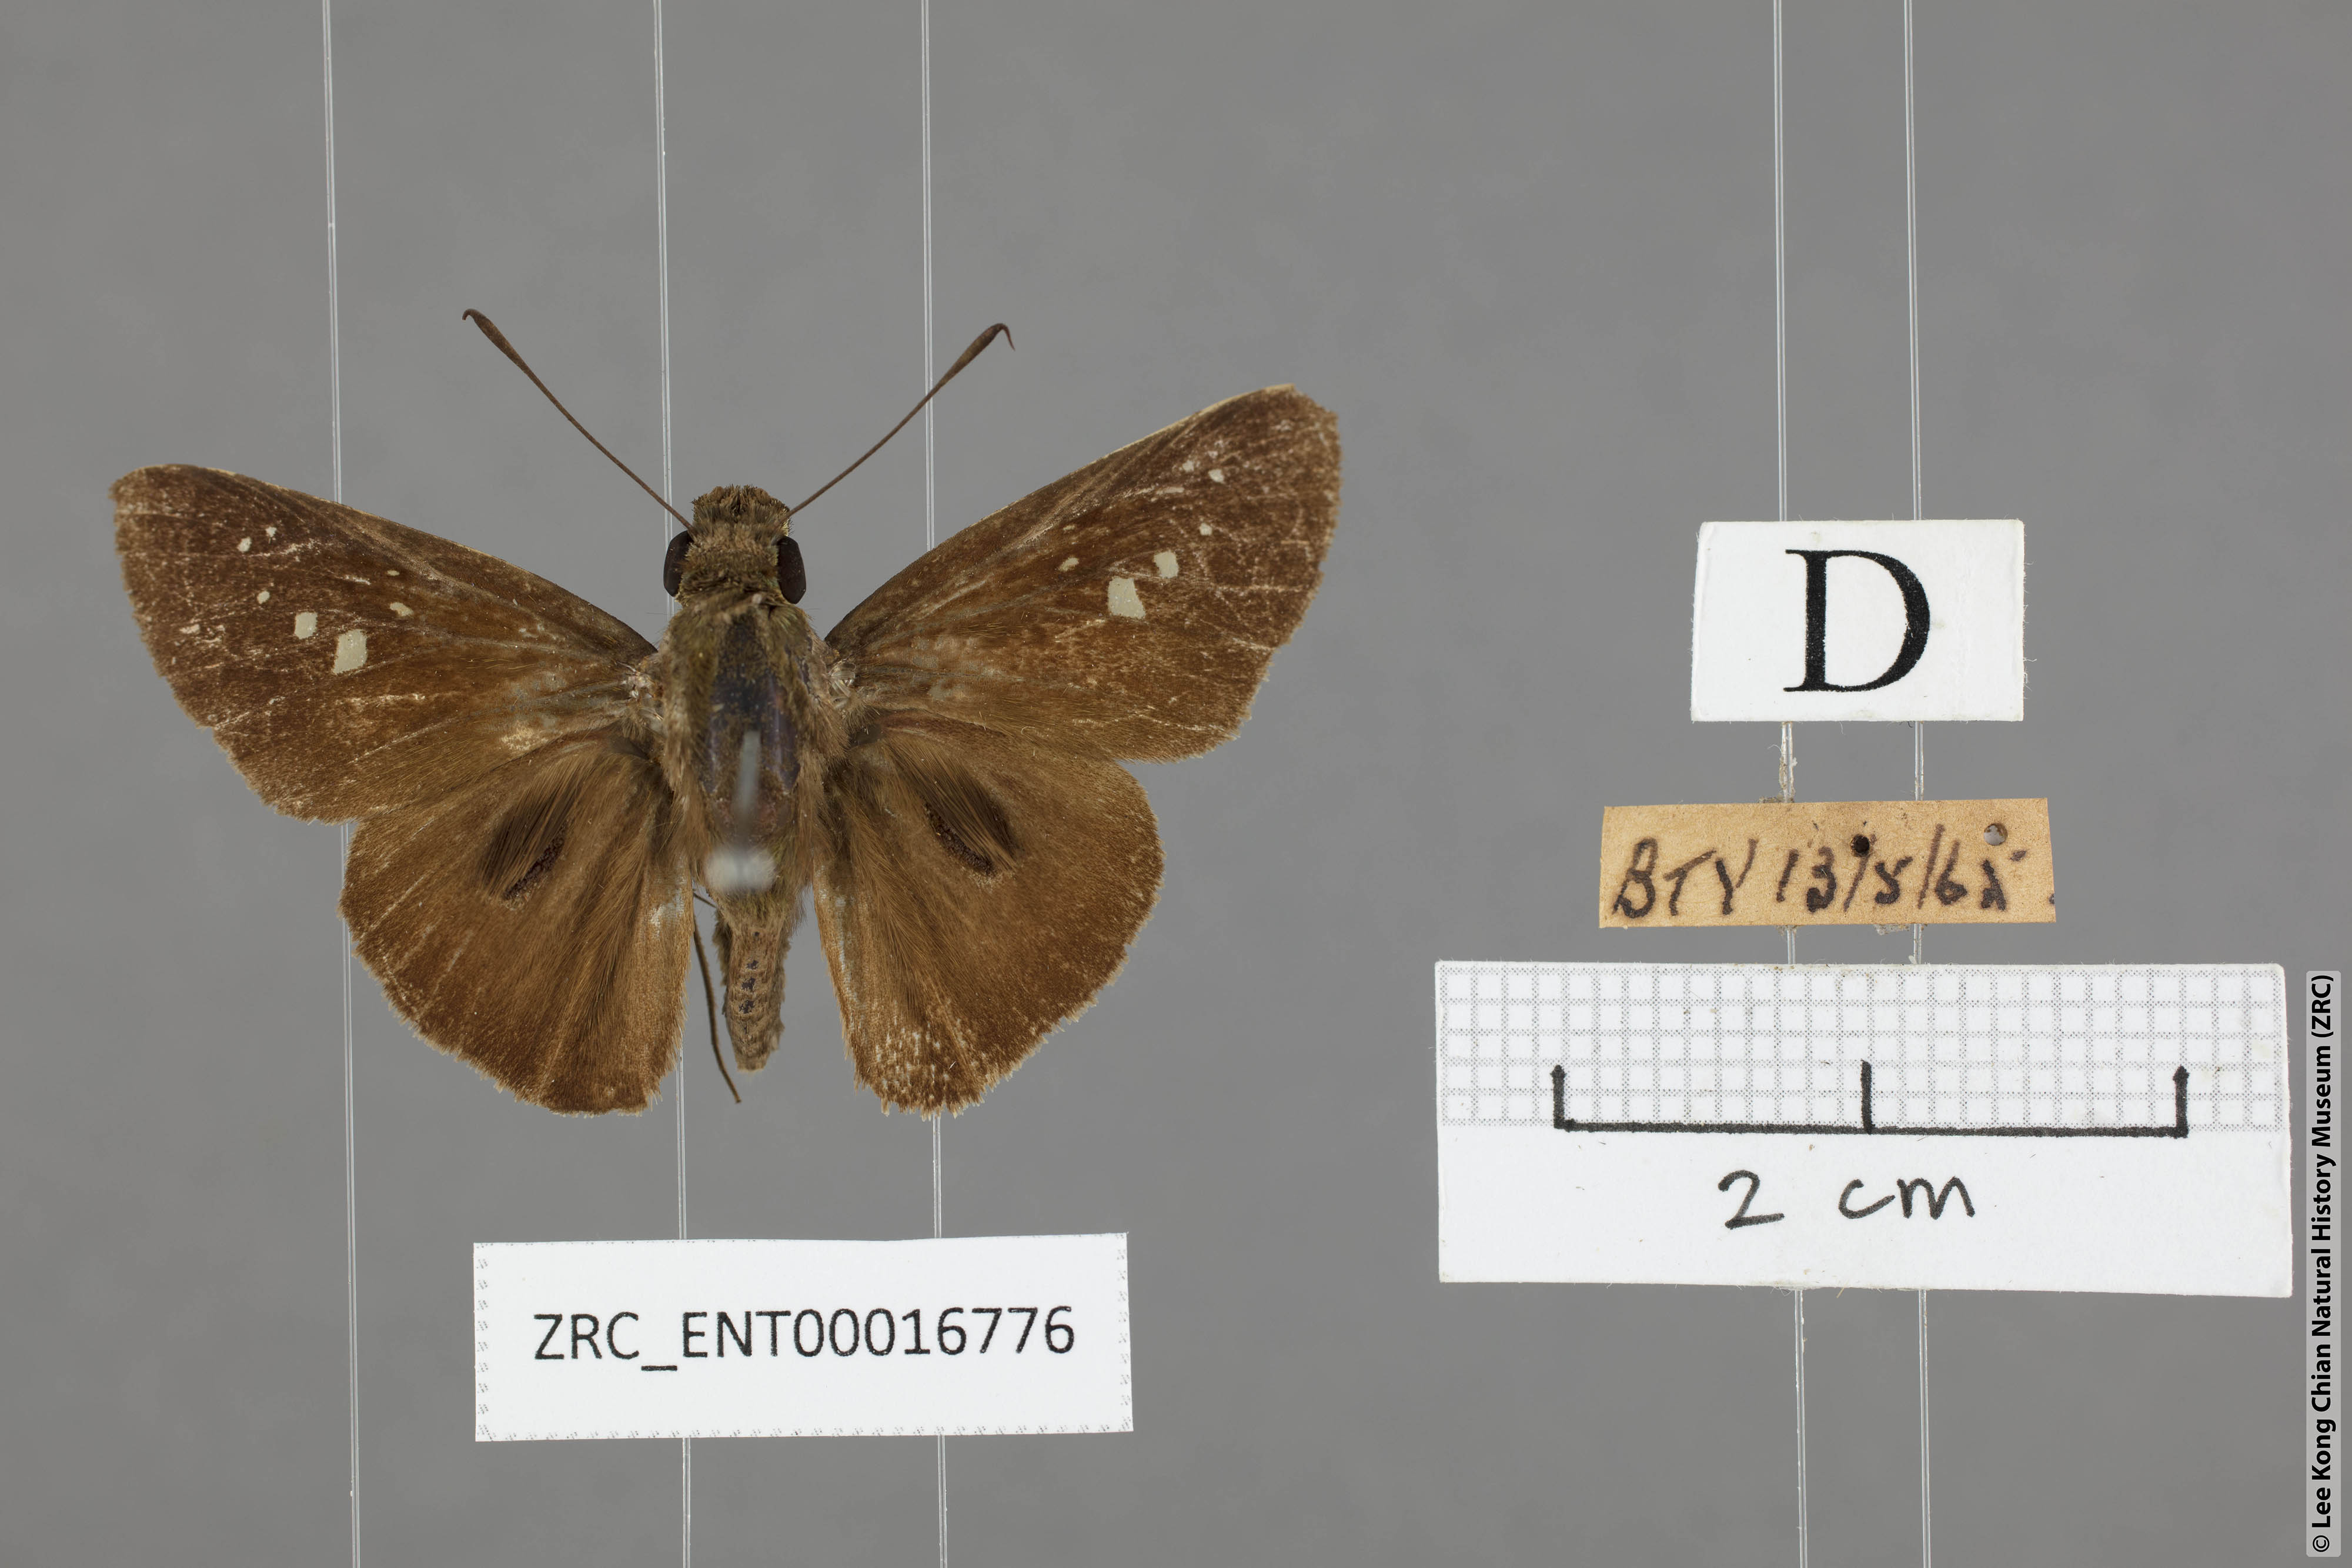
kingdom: Animalia
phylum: Arthropoda
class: Insecta
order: Lepidoptera
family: Hesperiidae
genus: Baoris
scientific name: Baoris farri
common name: Paintbrush swift
